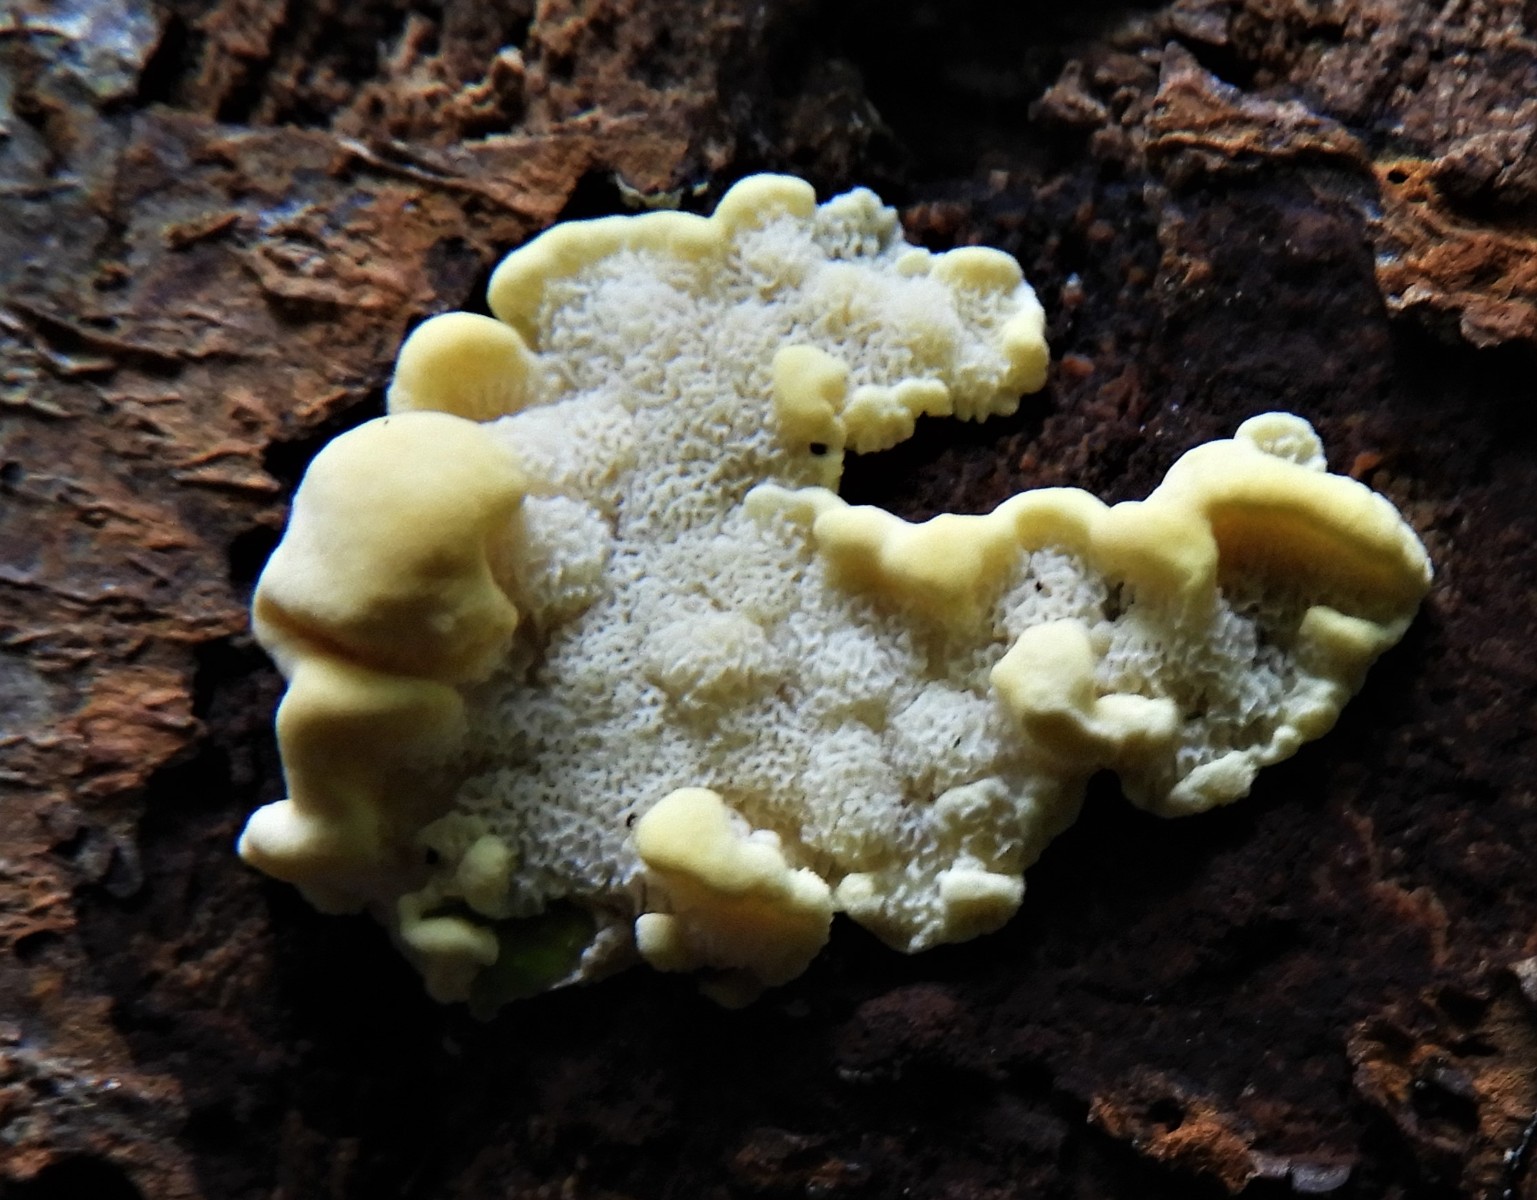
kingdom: Fungi
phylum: Basidiomycota
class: Agaricomycetes
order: Polyporales
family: Steccherinaceae
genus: Antrodiella
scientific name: Antrodiella serpula
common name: gulrandet elastikporesvamp
